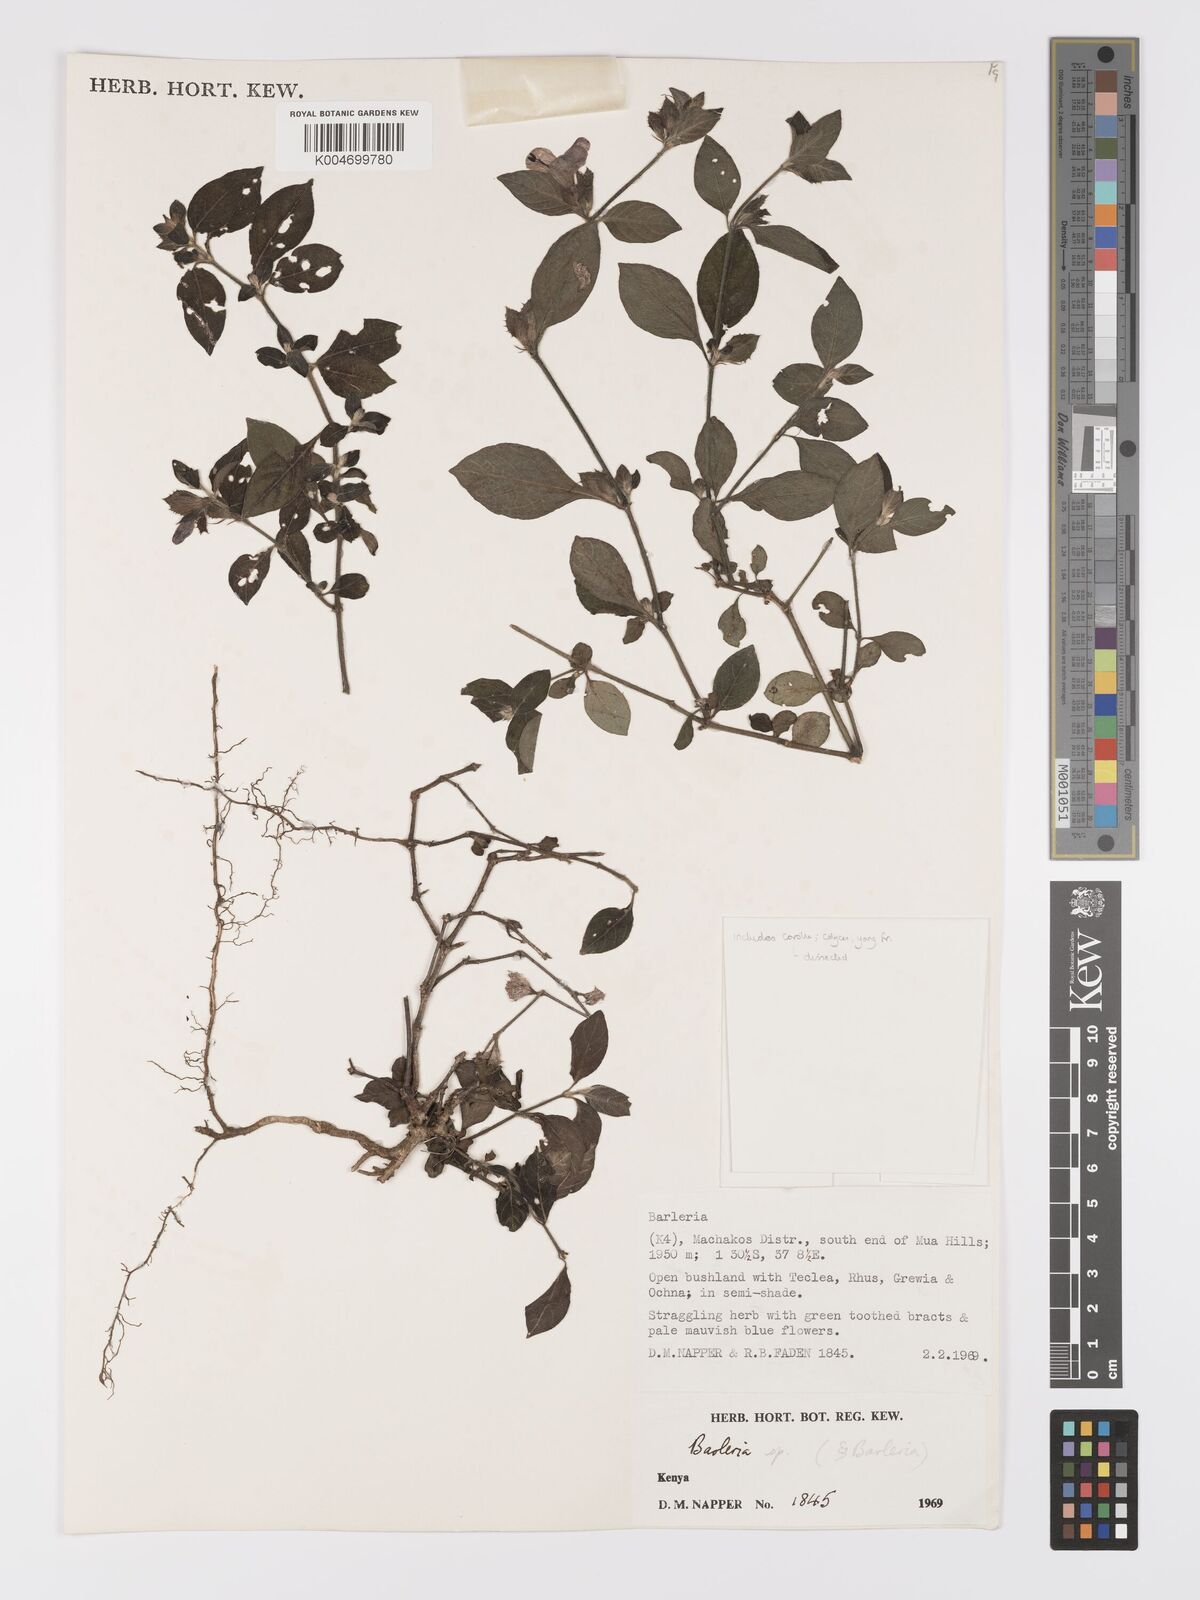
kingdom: Plantae
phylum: Tracheophyta
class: Magnoliopsida
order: Lamiales
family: Acanthaceae
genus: Barleria
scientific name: Barleria ventricosa
